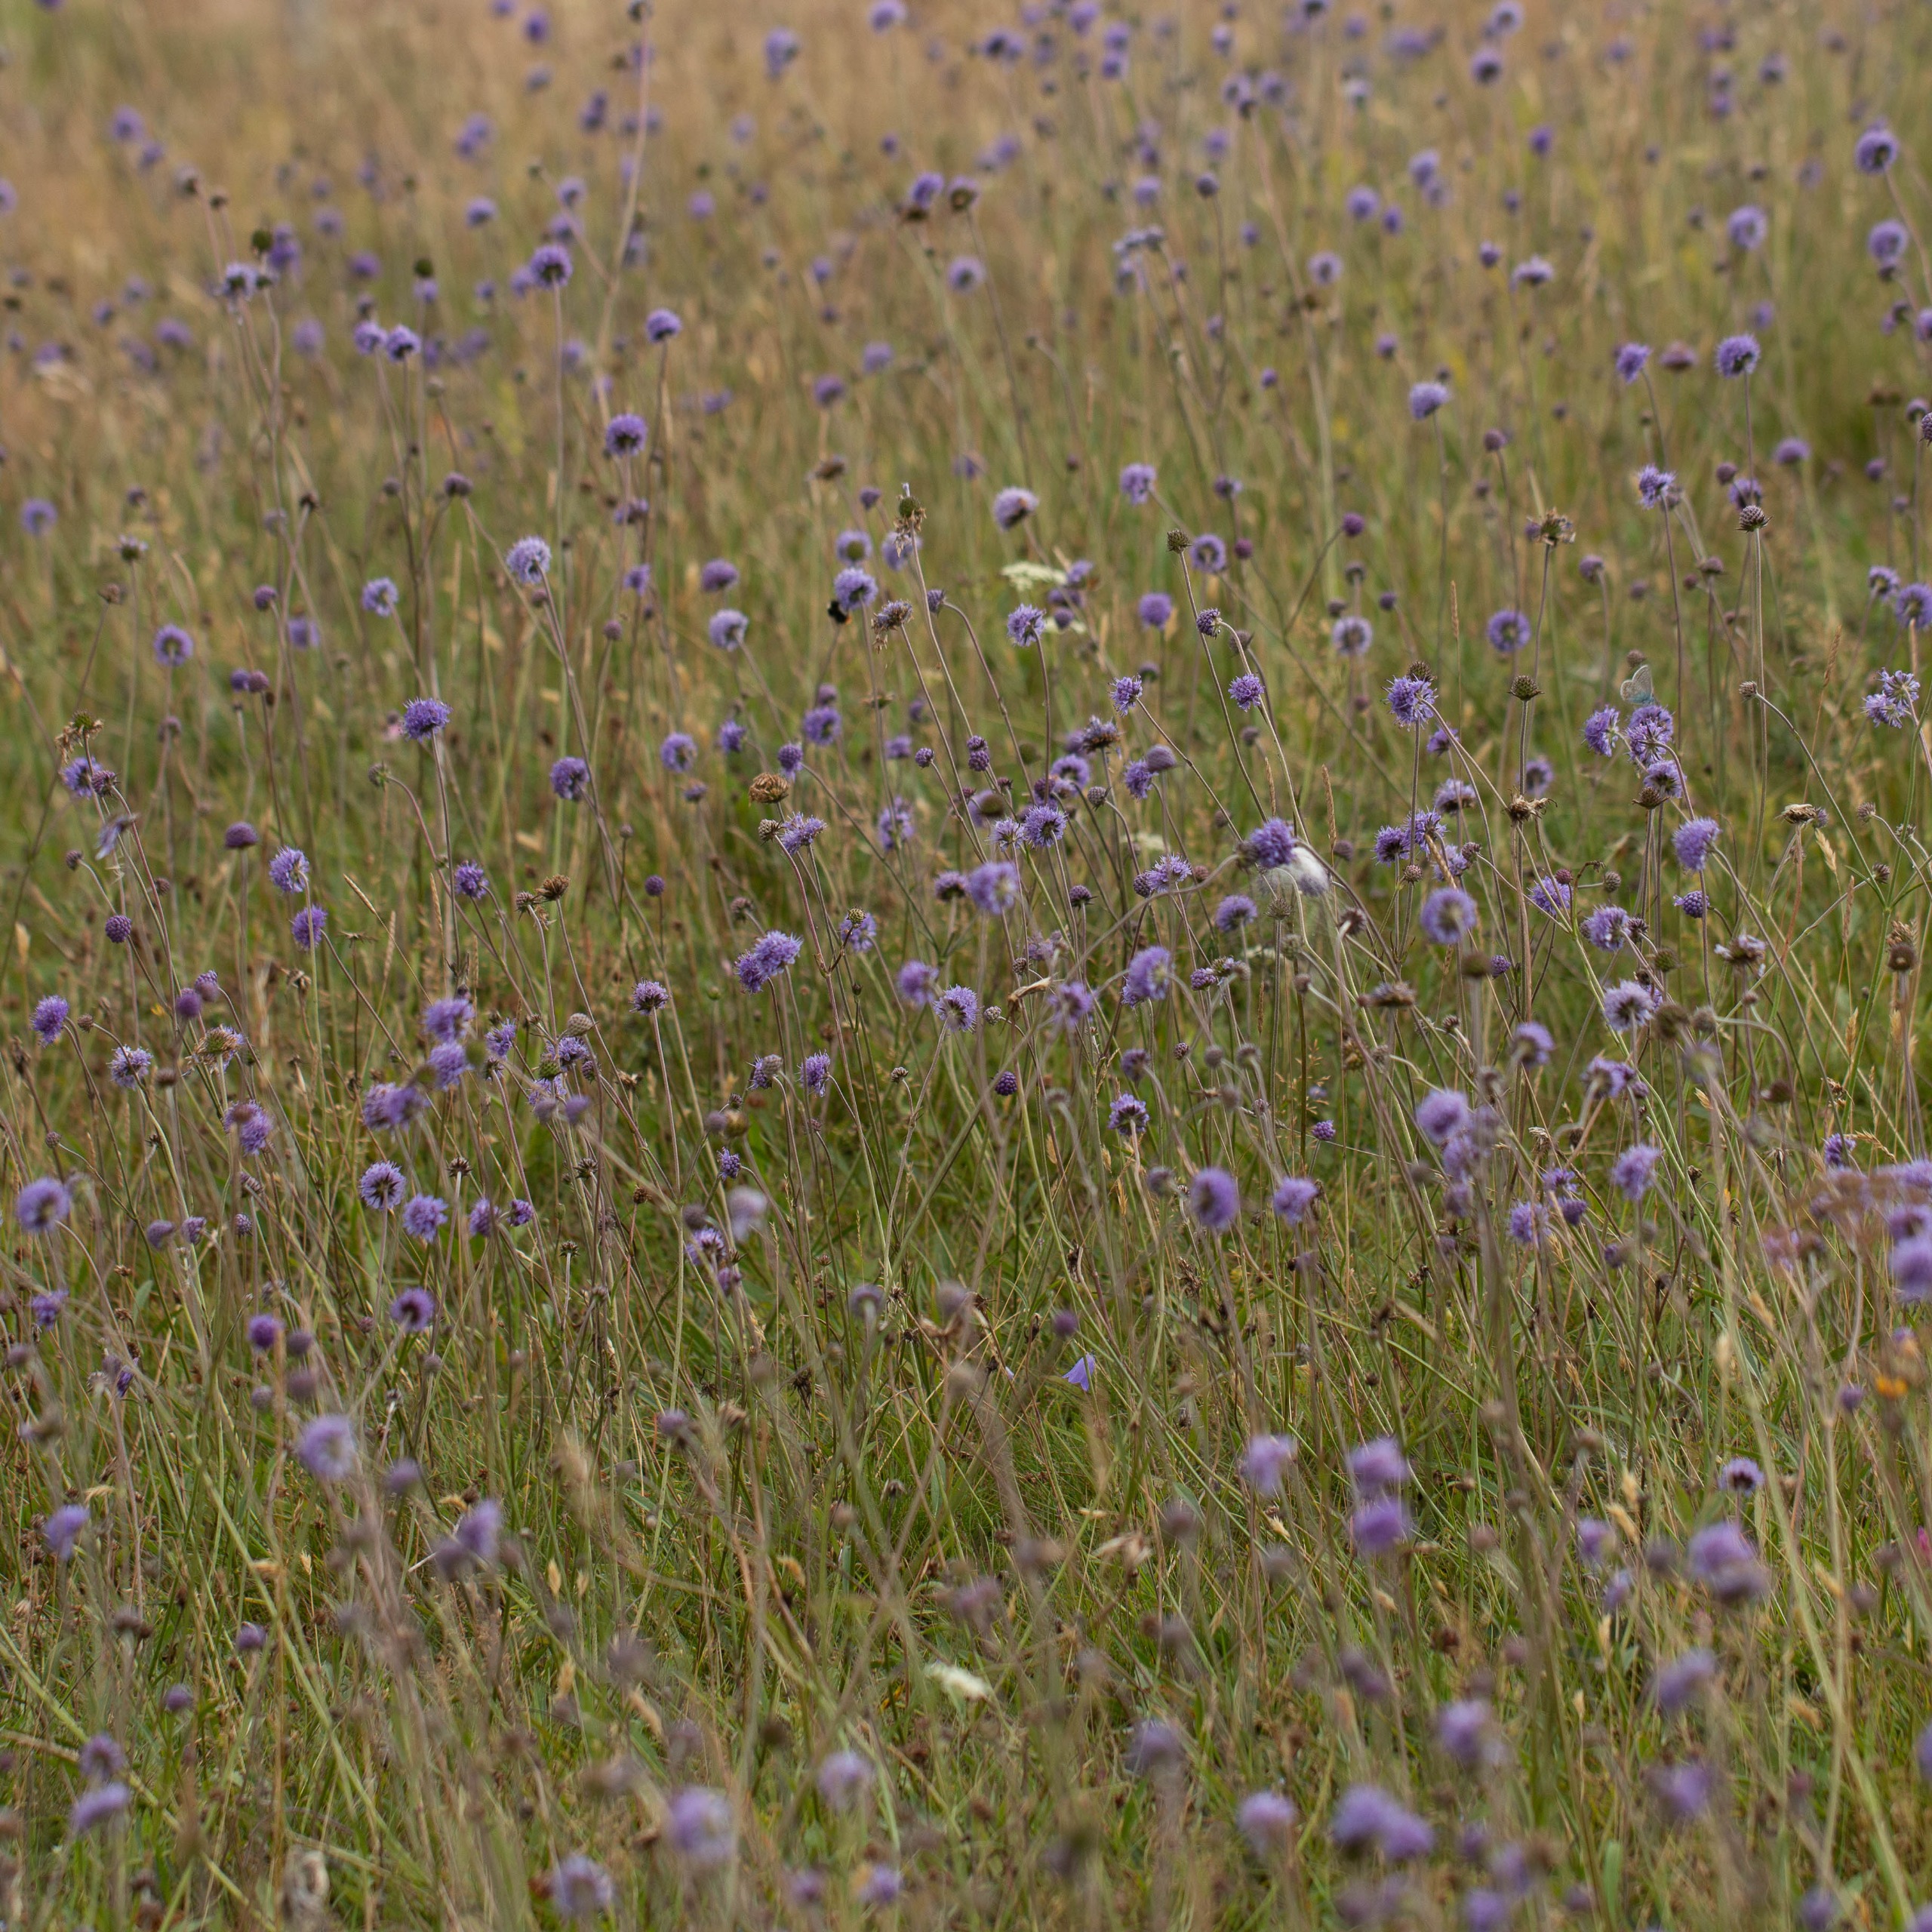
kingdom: Plantae
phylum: Tracheophyta
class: Magnoliopsida
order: Dipsacales
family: Caprifoliaceae
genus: Succisa
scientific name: Succisa pratensis
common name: Djævelsbid
